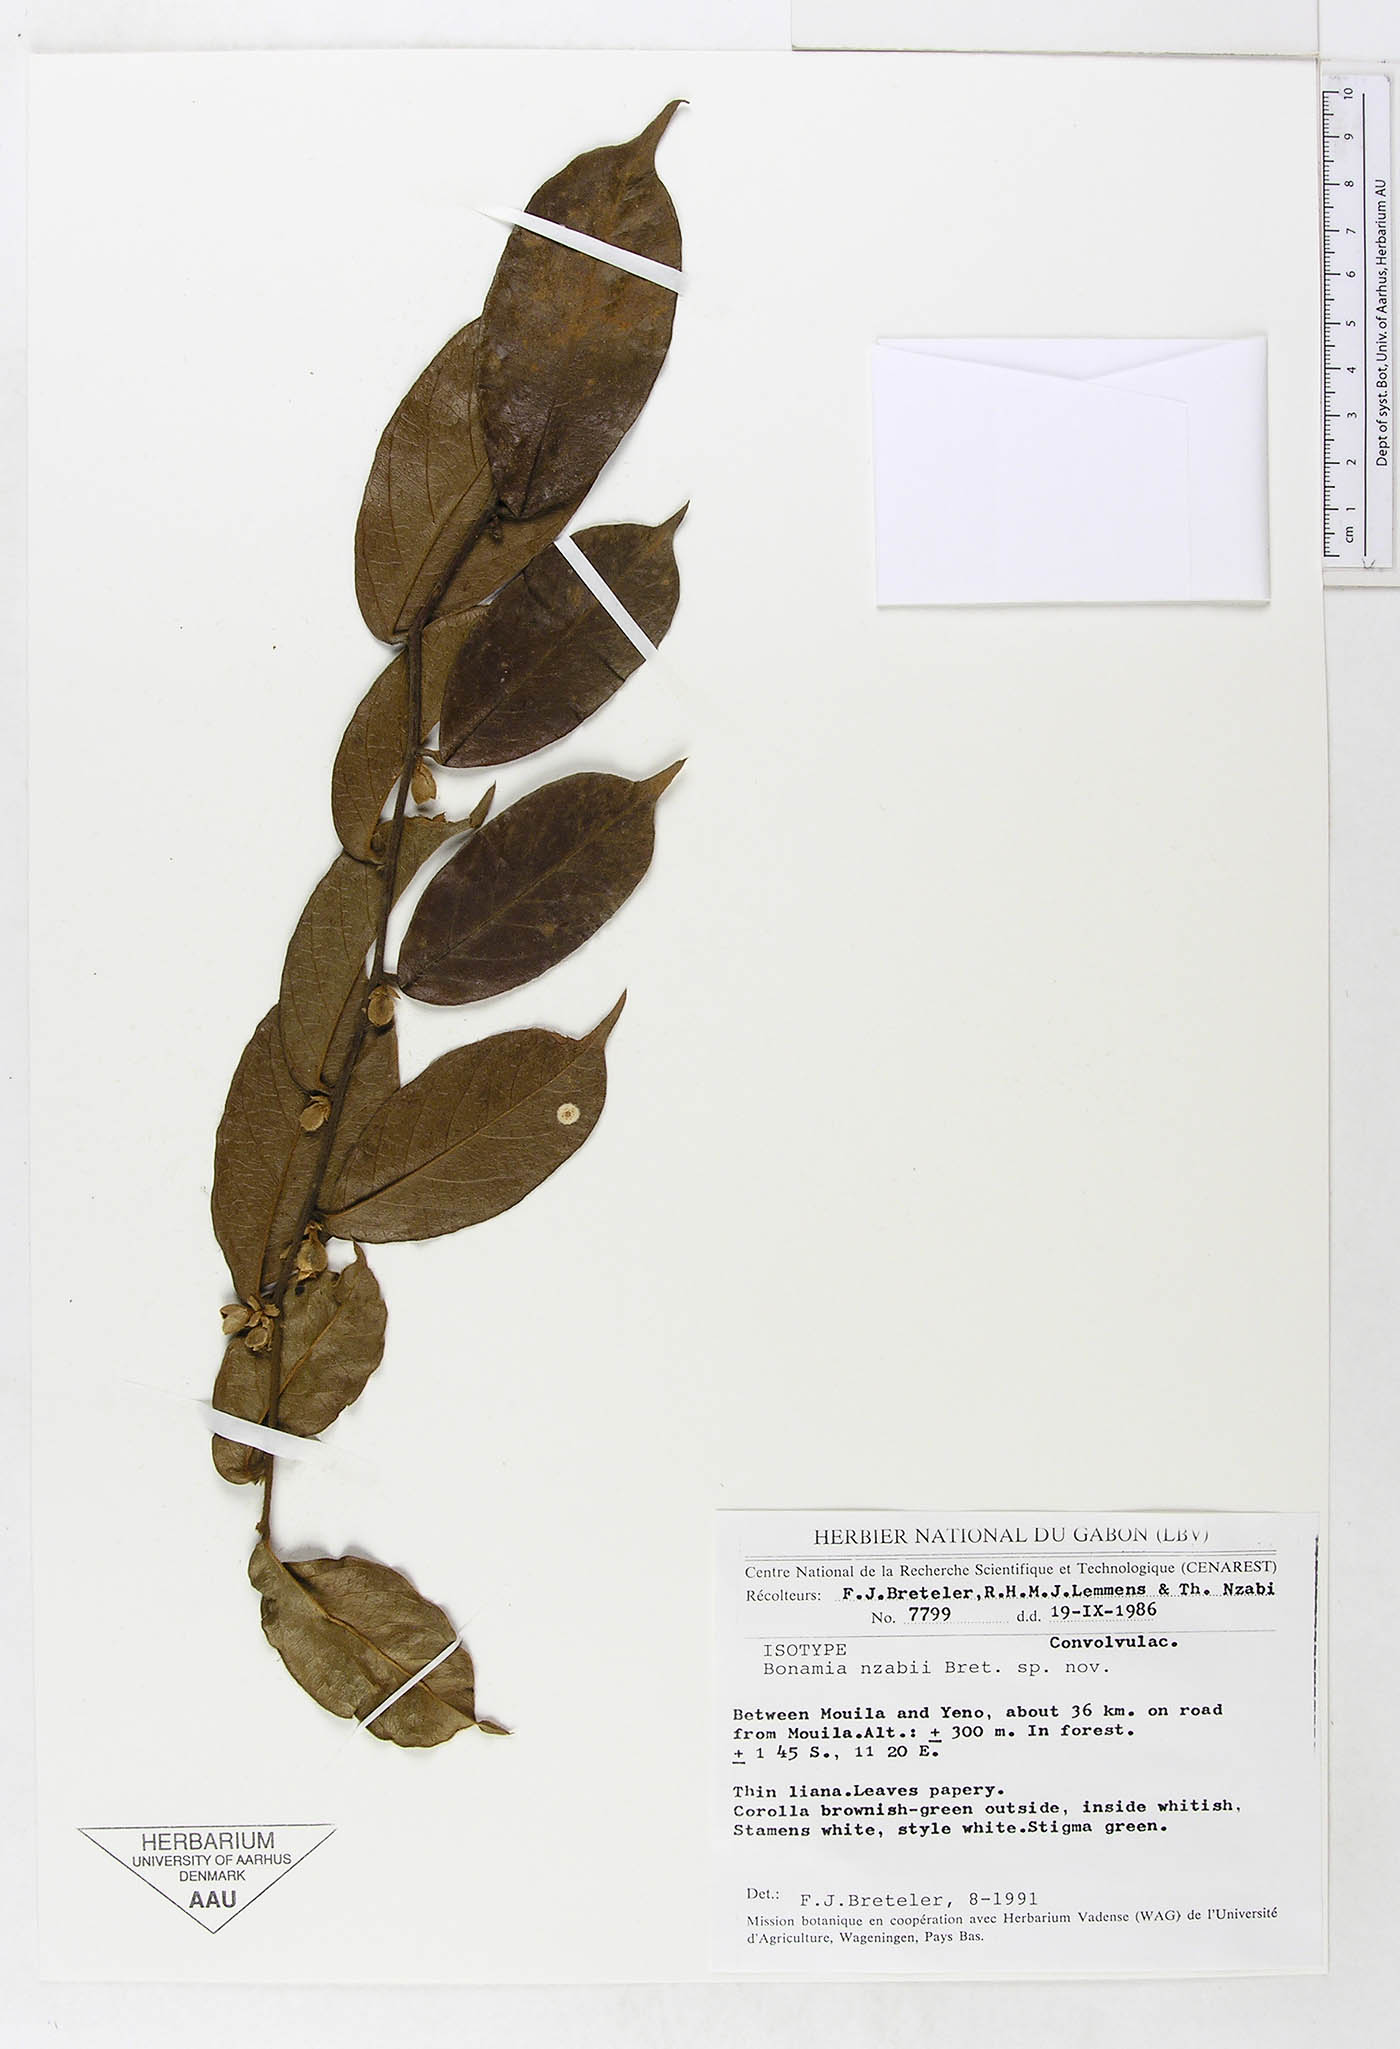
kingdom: Plantae
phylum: Tracheophyta
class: Magnoliopsida
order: Solanales
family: Convolvulaceae
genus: Bonamia
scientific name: Bonamia nzabii
